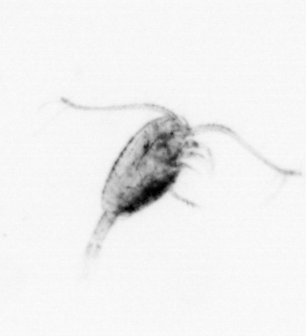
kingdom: Animalia
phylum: Arthropoda
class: Copepoda
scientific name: Copepoda
